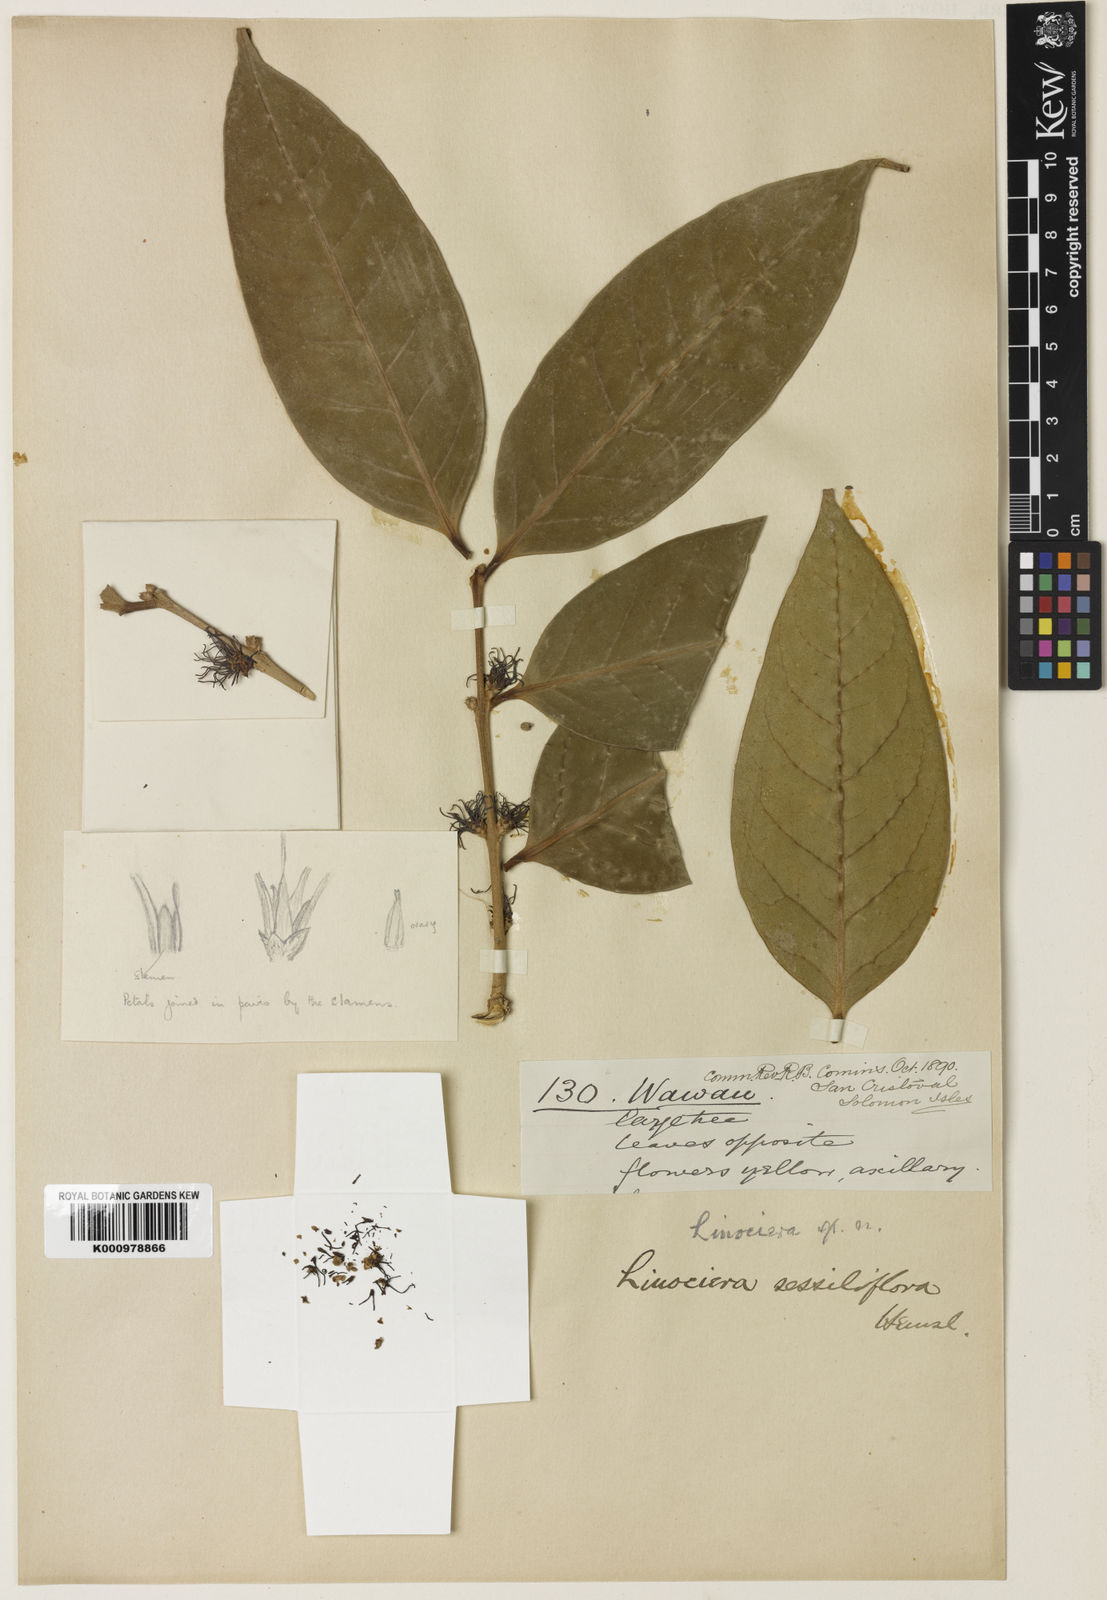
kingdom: Plantae
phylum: Tracheophyta
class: Magnoliopsida
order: Lamiales
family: Oleaceae
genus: Chionanthus
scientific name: Chionanthus sessiliflorus
